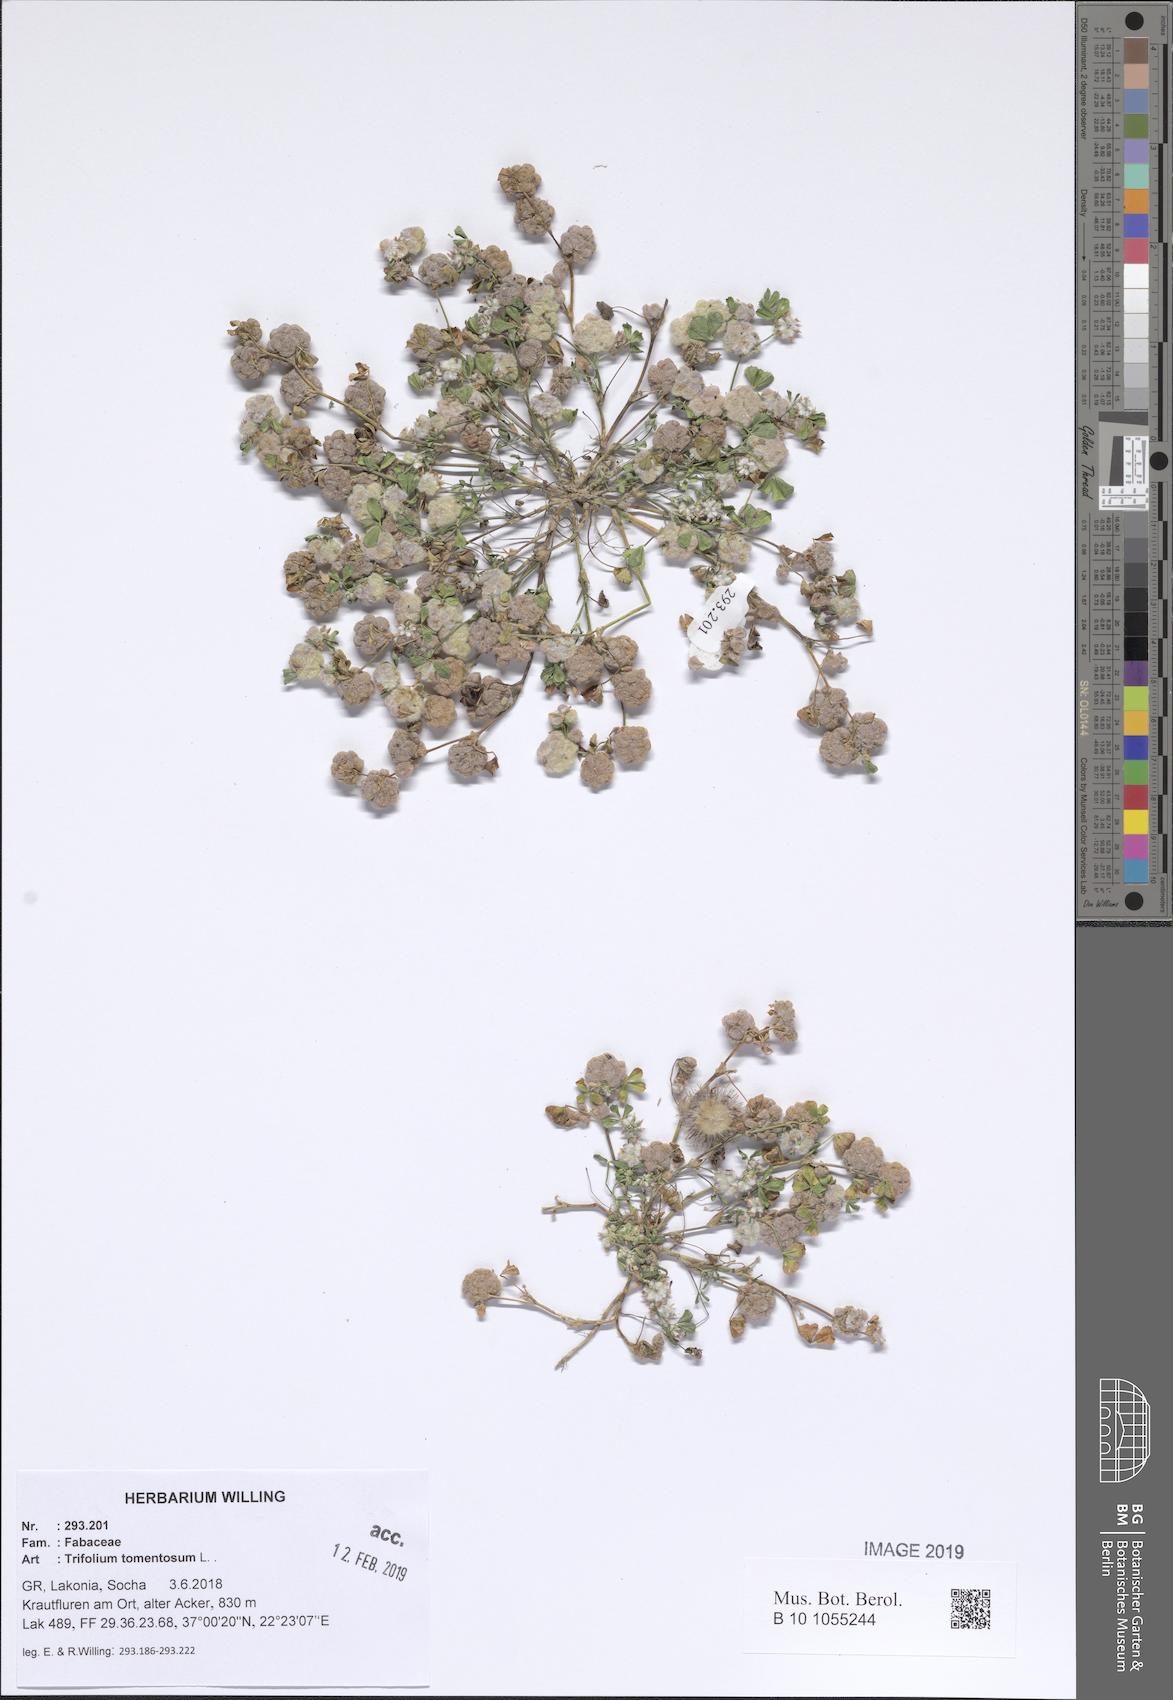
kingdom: Plantae
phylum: Tracheophyta
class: Magnoliopsida
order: Fabales
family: Fabaceae
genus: Trifolium
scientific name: Trifolium tomentosum
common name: Woolly clover
